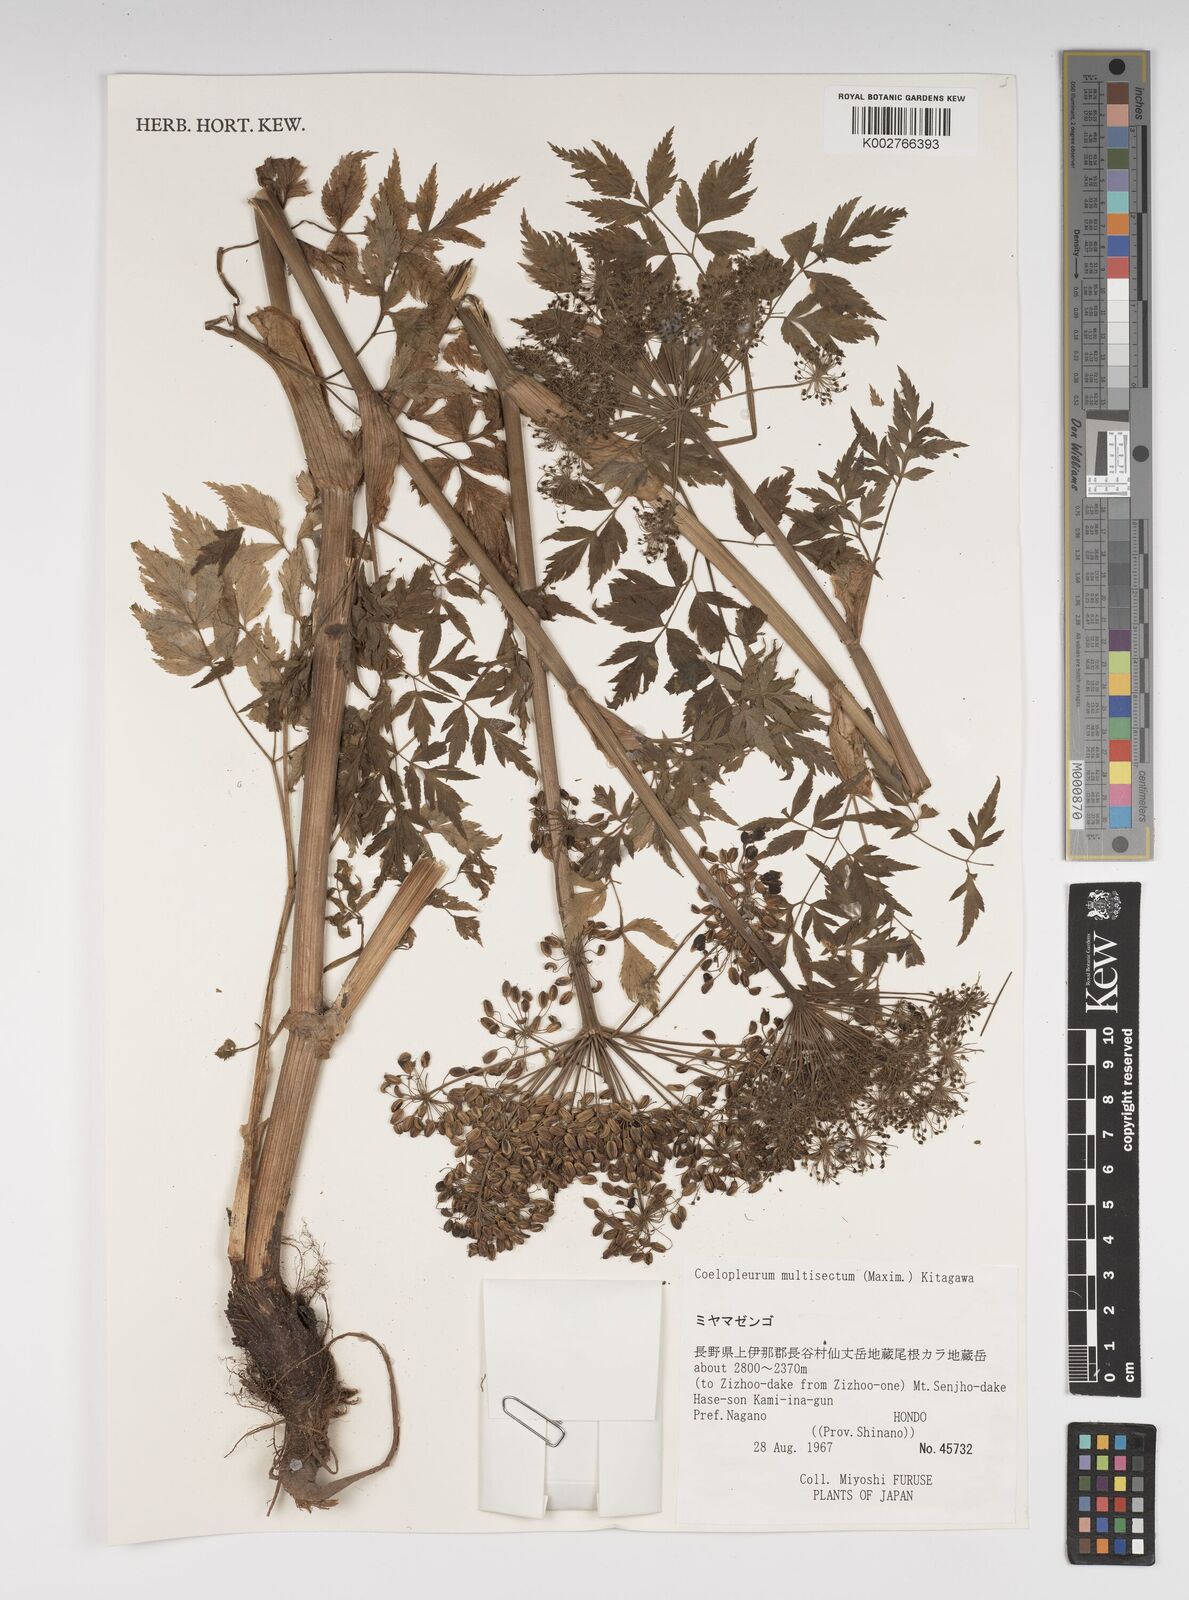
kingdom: Plantae
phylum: Tracheophyta
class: Magnoliopsida
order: Apiales
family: Apiaceae
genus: Angelica
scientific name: Angelica
